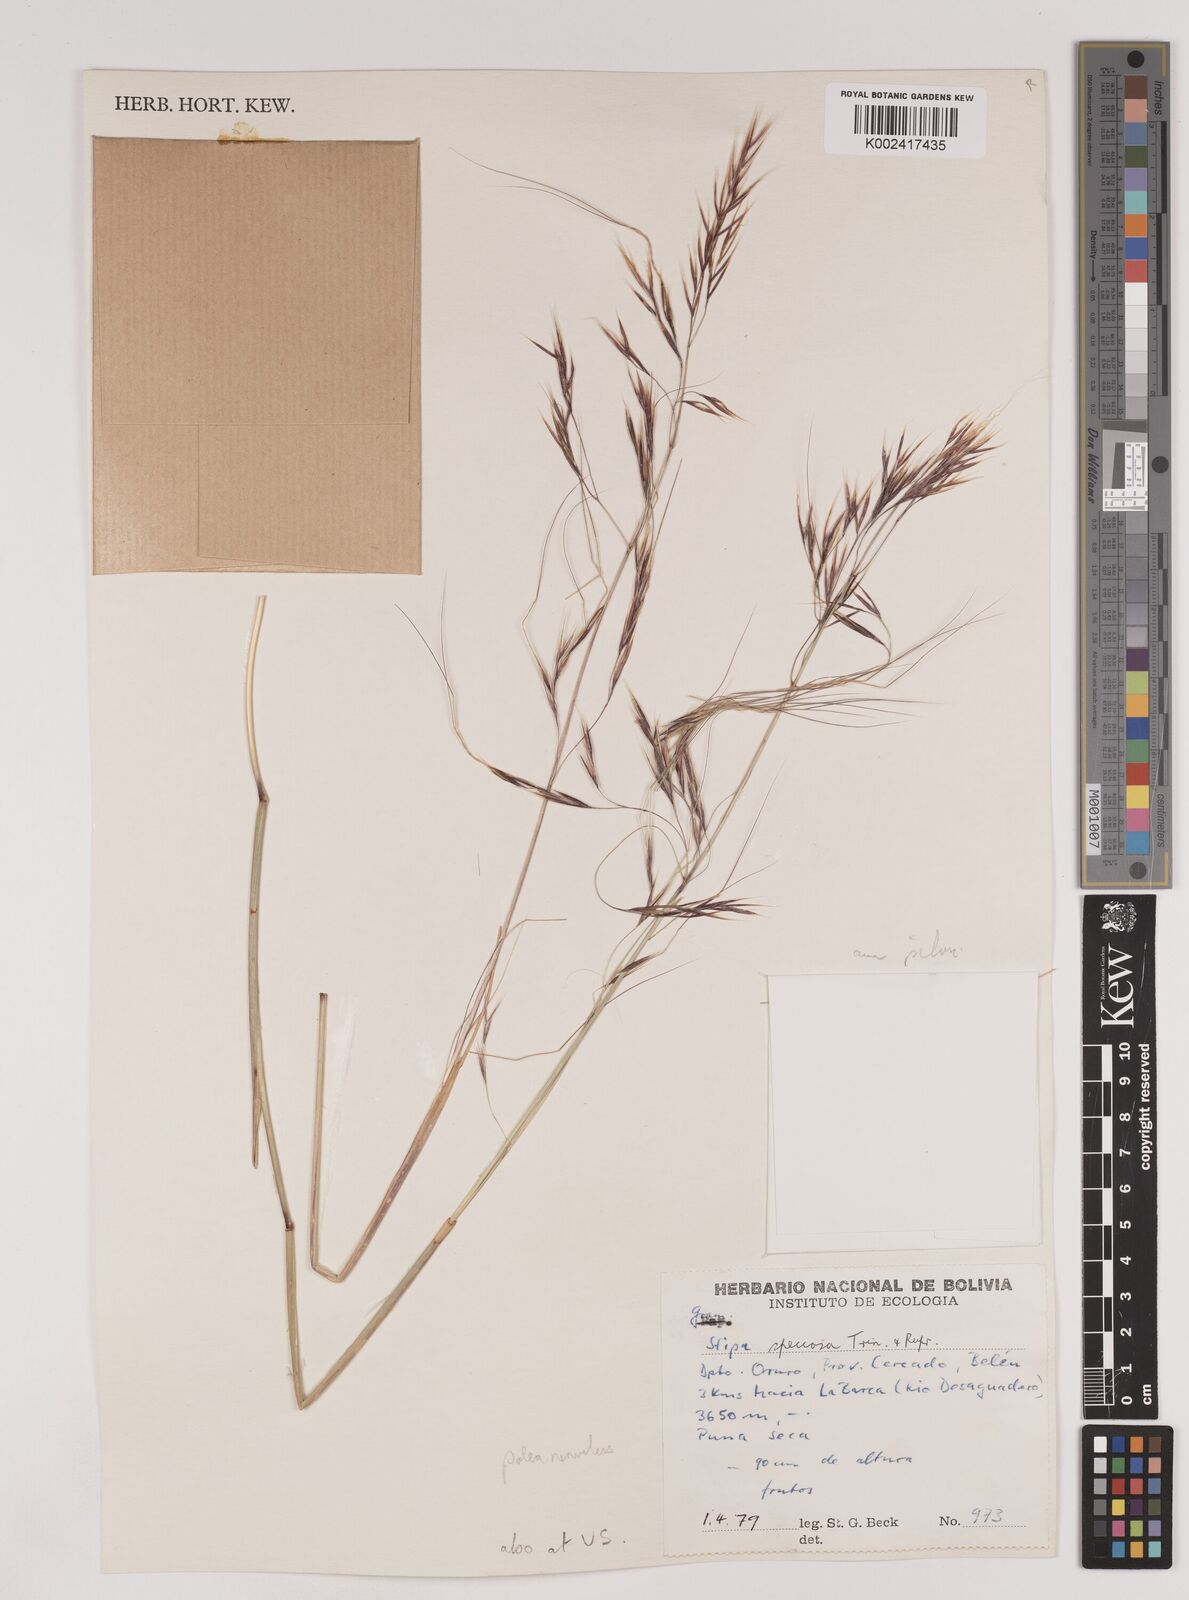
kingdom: Plantae
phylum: Tracheophyta
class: Liliopsida
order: Poales
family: Poaceae
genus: Nassella
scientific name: Nassella arcuata
